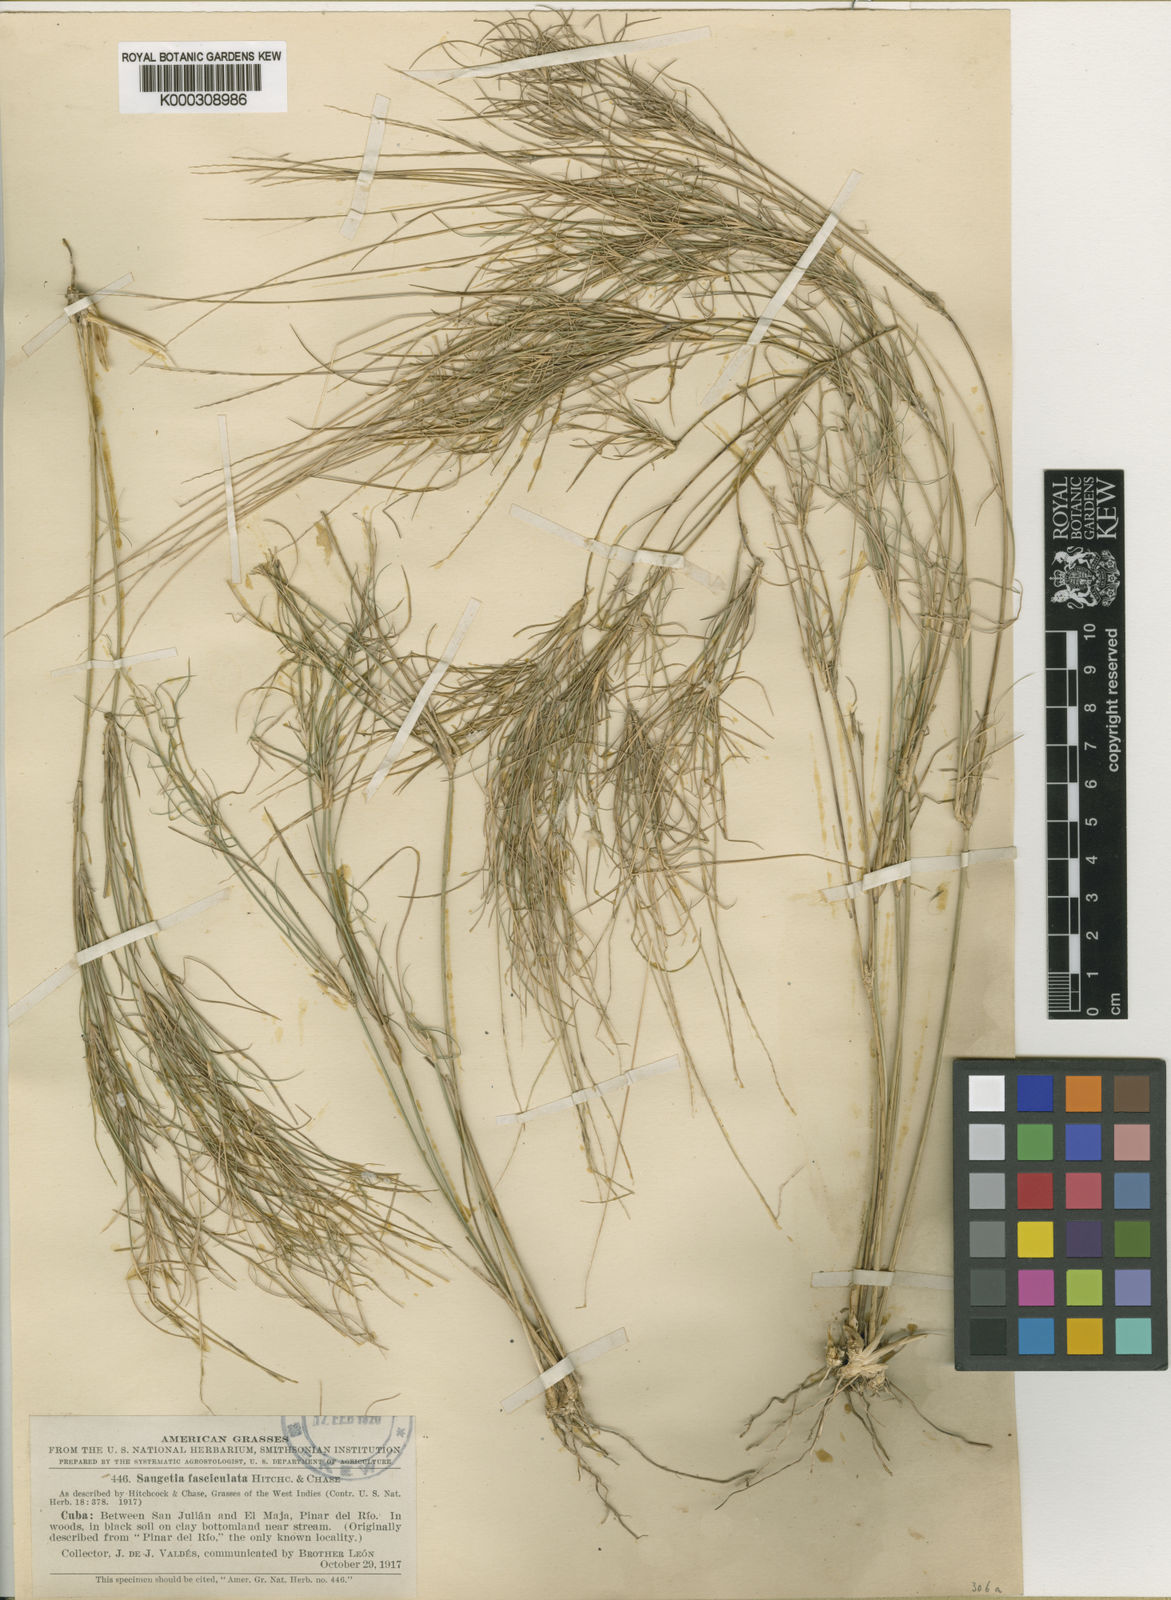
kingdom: Plantae
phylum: Tracheophyta
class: Liliopsida
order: Poales
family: Poaceae
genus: Enteropogon
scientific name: Enteropogon
